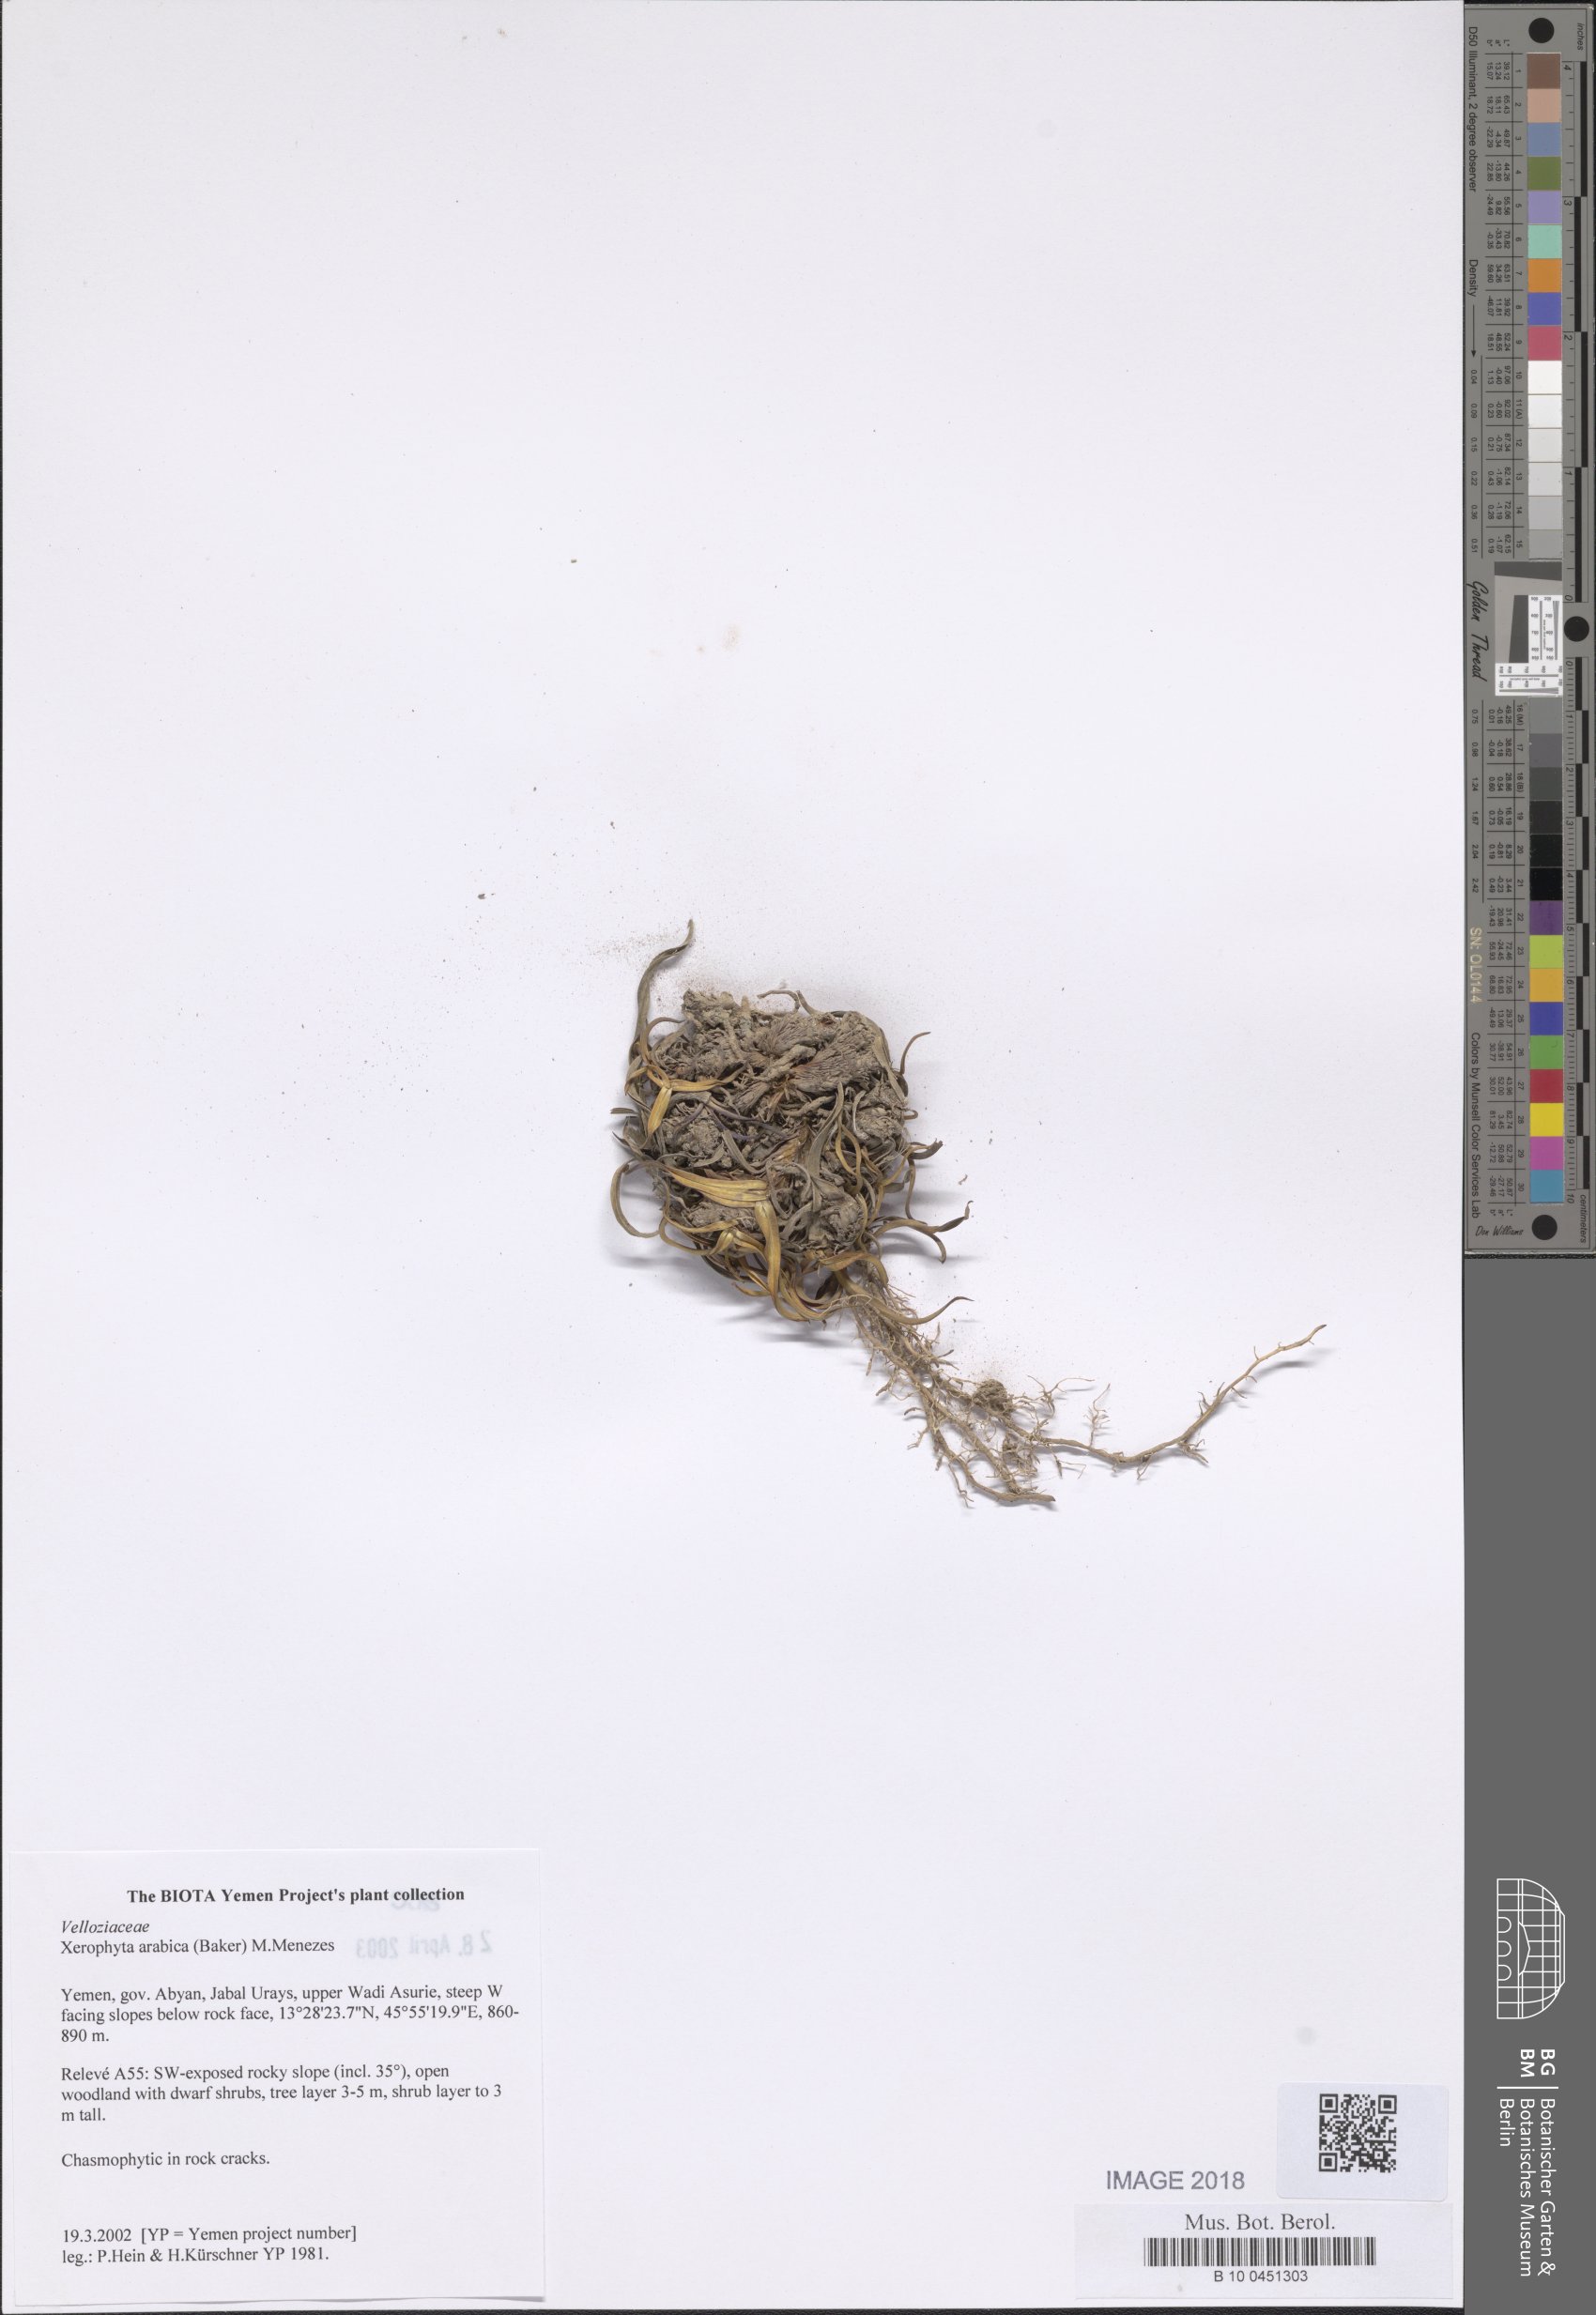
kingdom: Plantae
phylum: Tracheophyta
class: Liliopsida
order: Pandanales
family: Velloziaceae
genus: Xerophyta
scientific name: Xerophyta arabica
